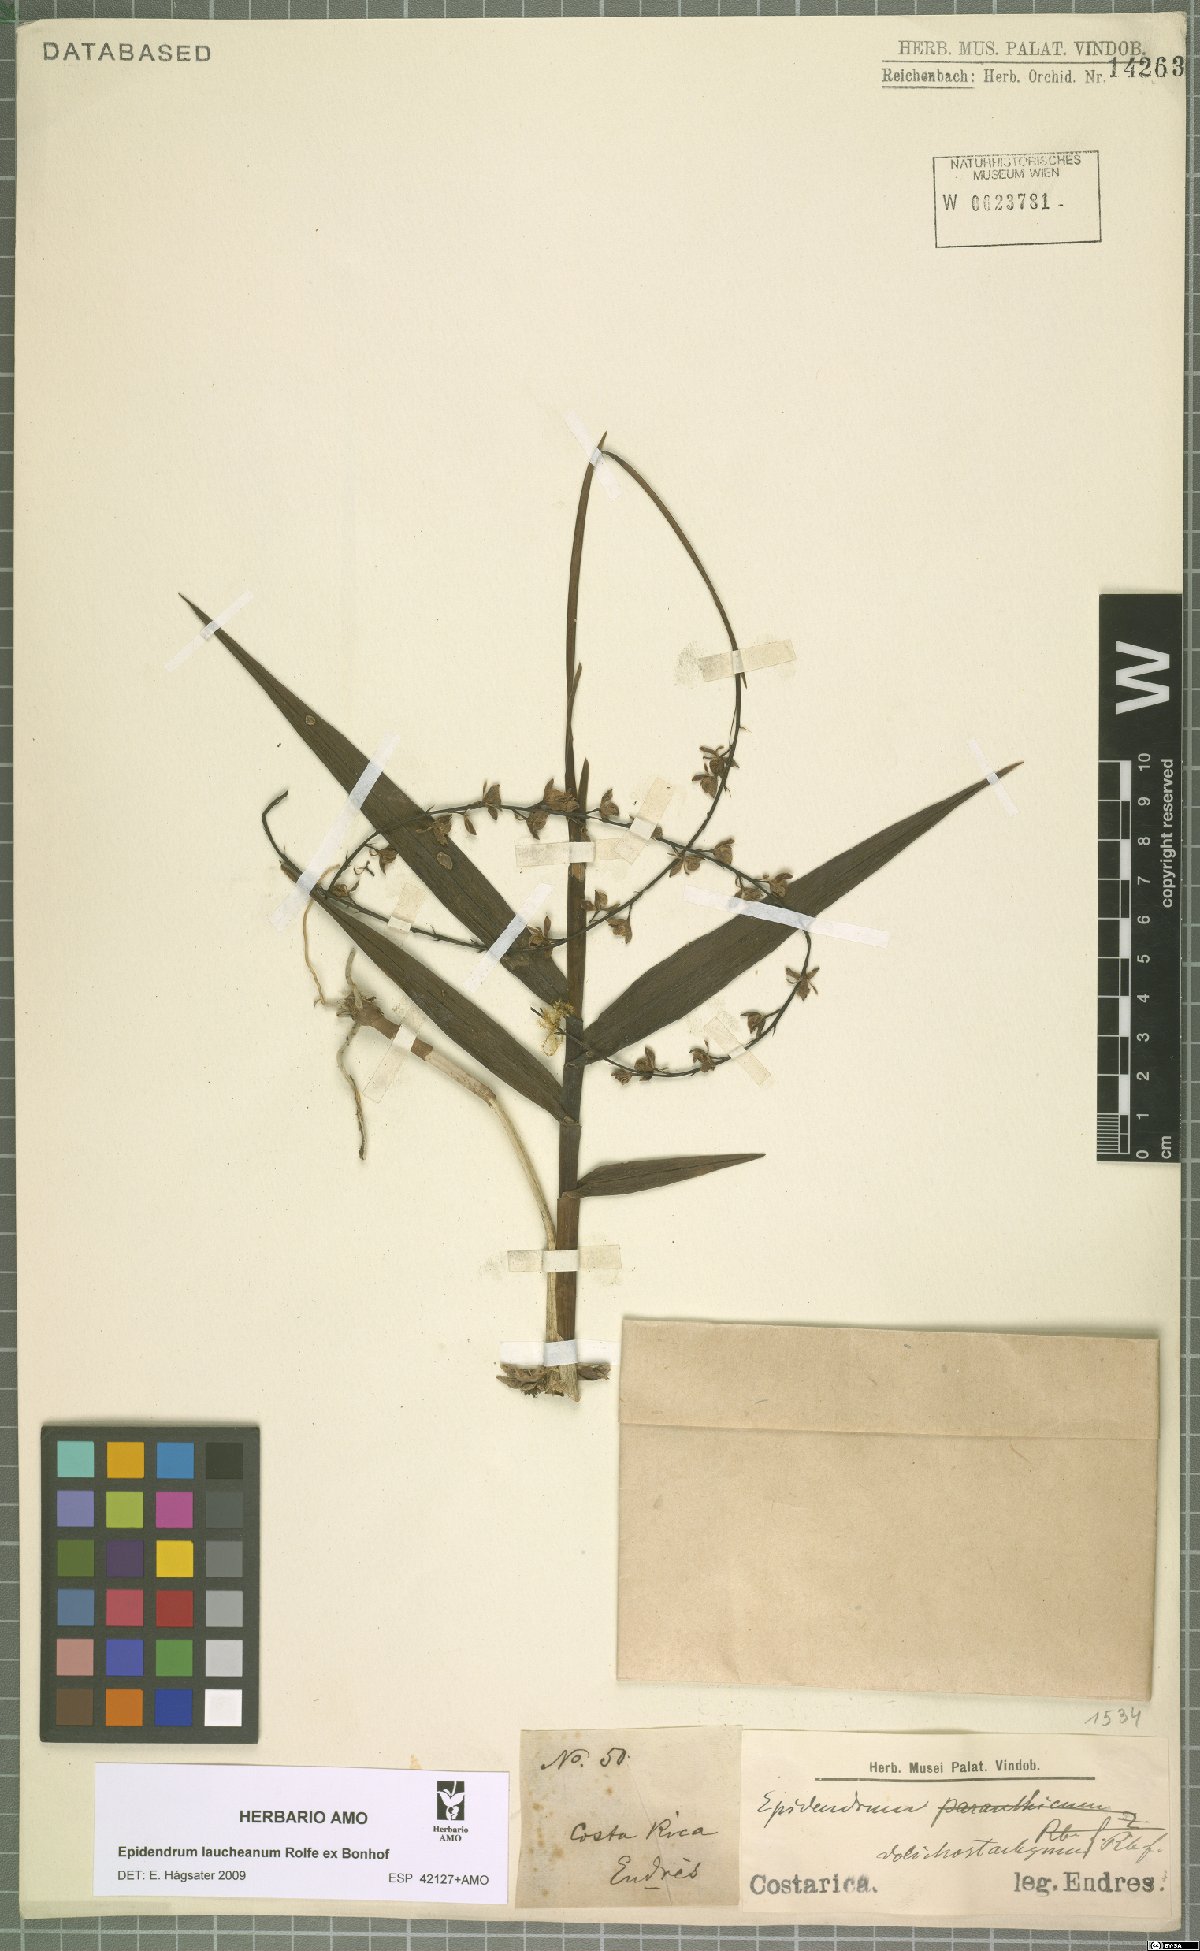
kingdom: Plantae
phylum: Tracheophyta
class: Liliopsida
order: Asparagales
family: Orchidaceae
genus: Epidendrum
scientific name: Epidendrum laucheanum
